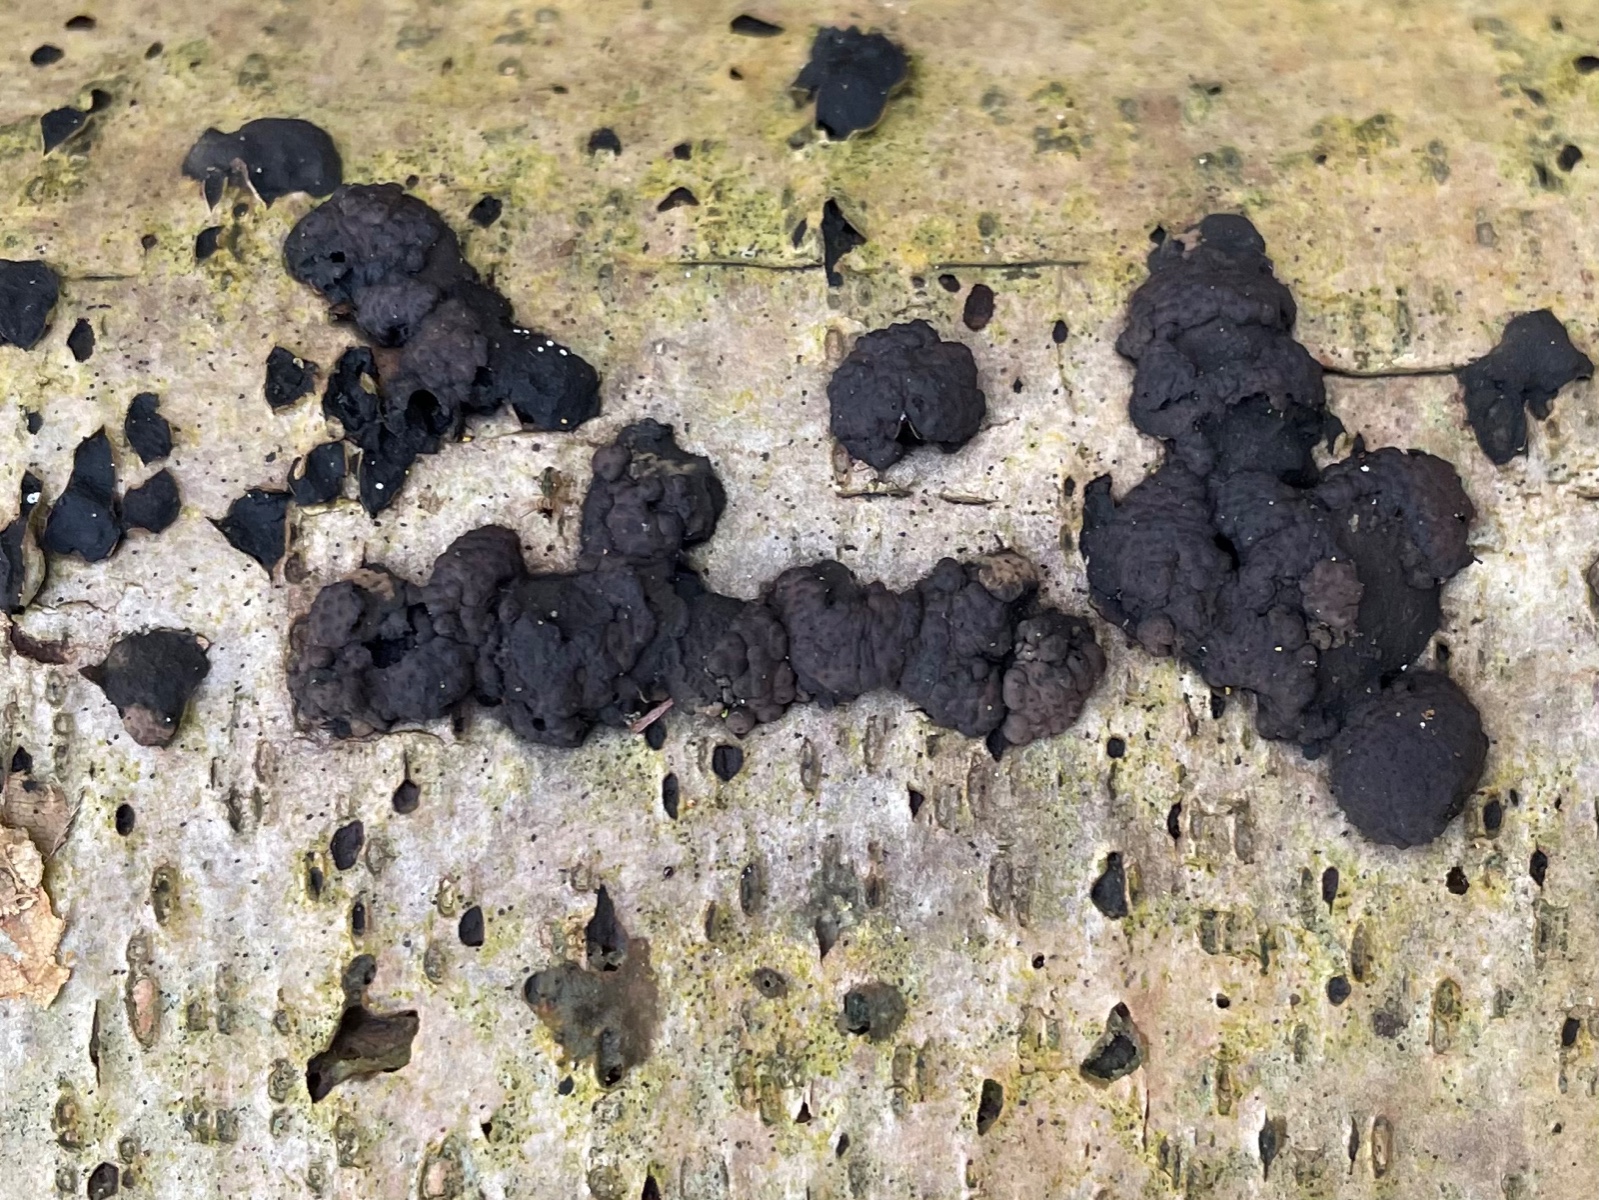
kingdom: Fungi
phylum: Ascomycota
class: Sordariomycetes
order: Xylariales
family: Hypoxylaceae
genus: Jackrogersella
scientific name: Jackrogersella multiformis
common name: foranderlig kulbær
